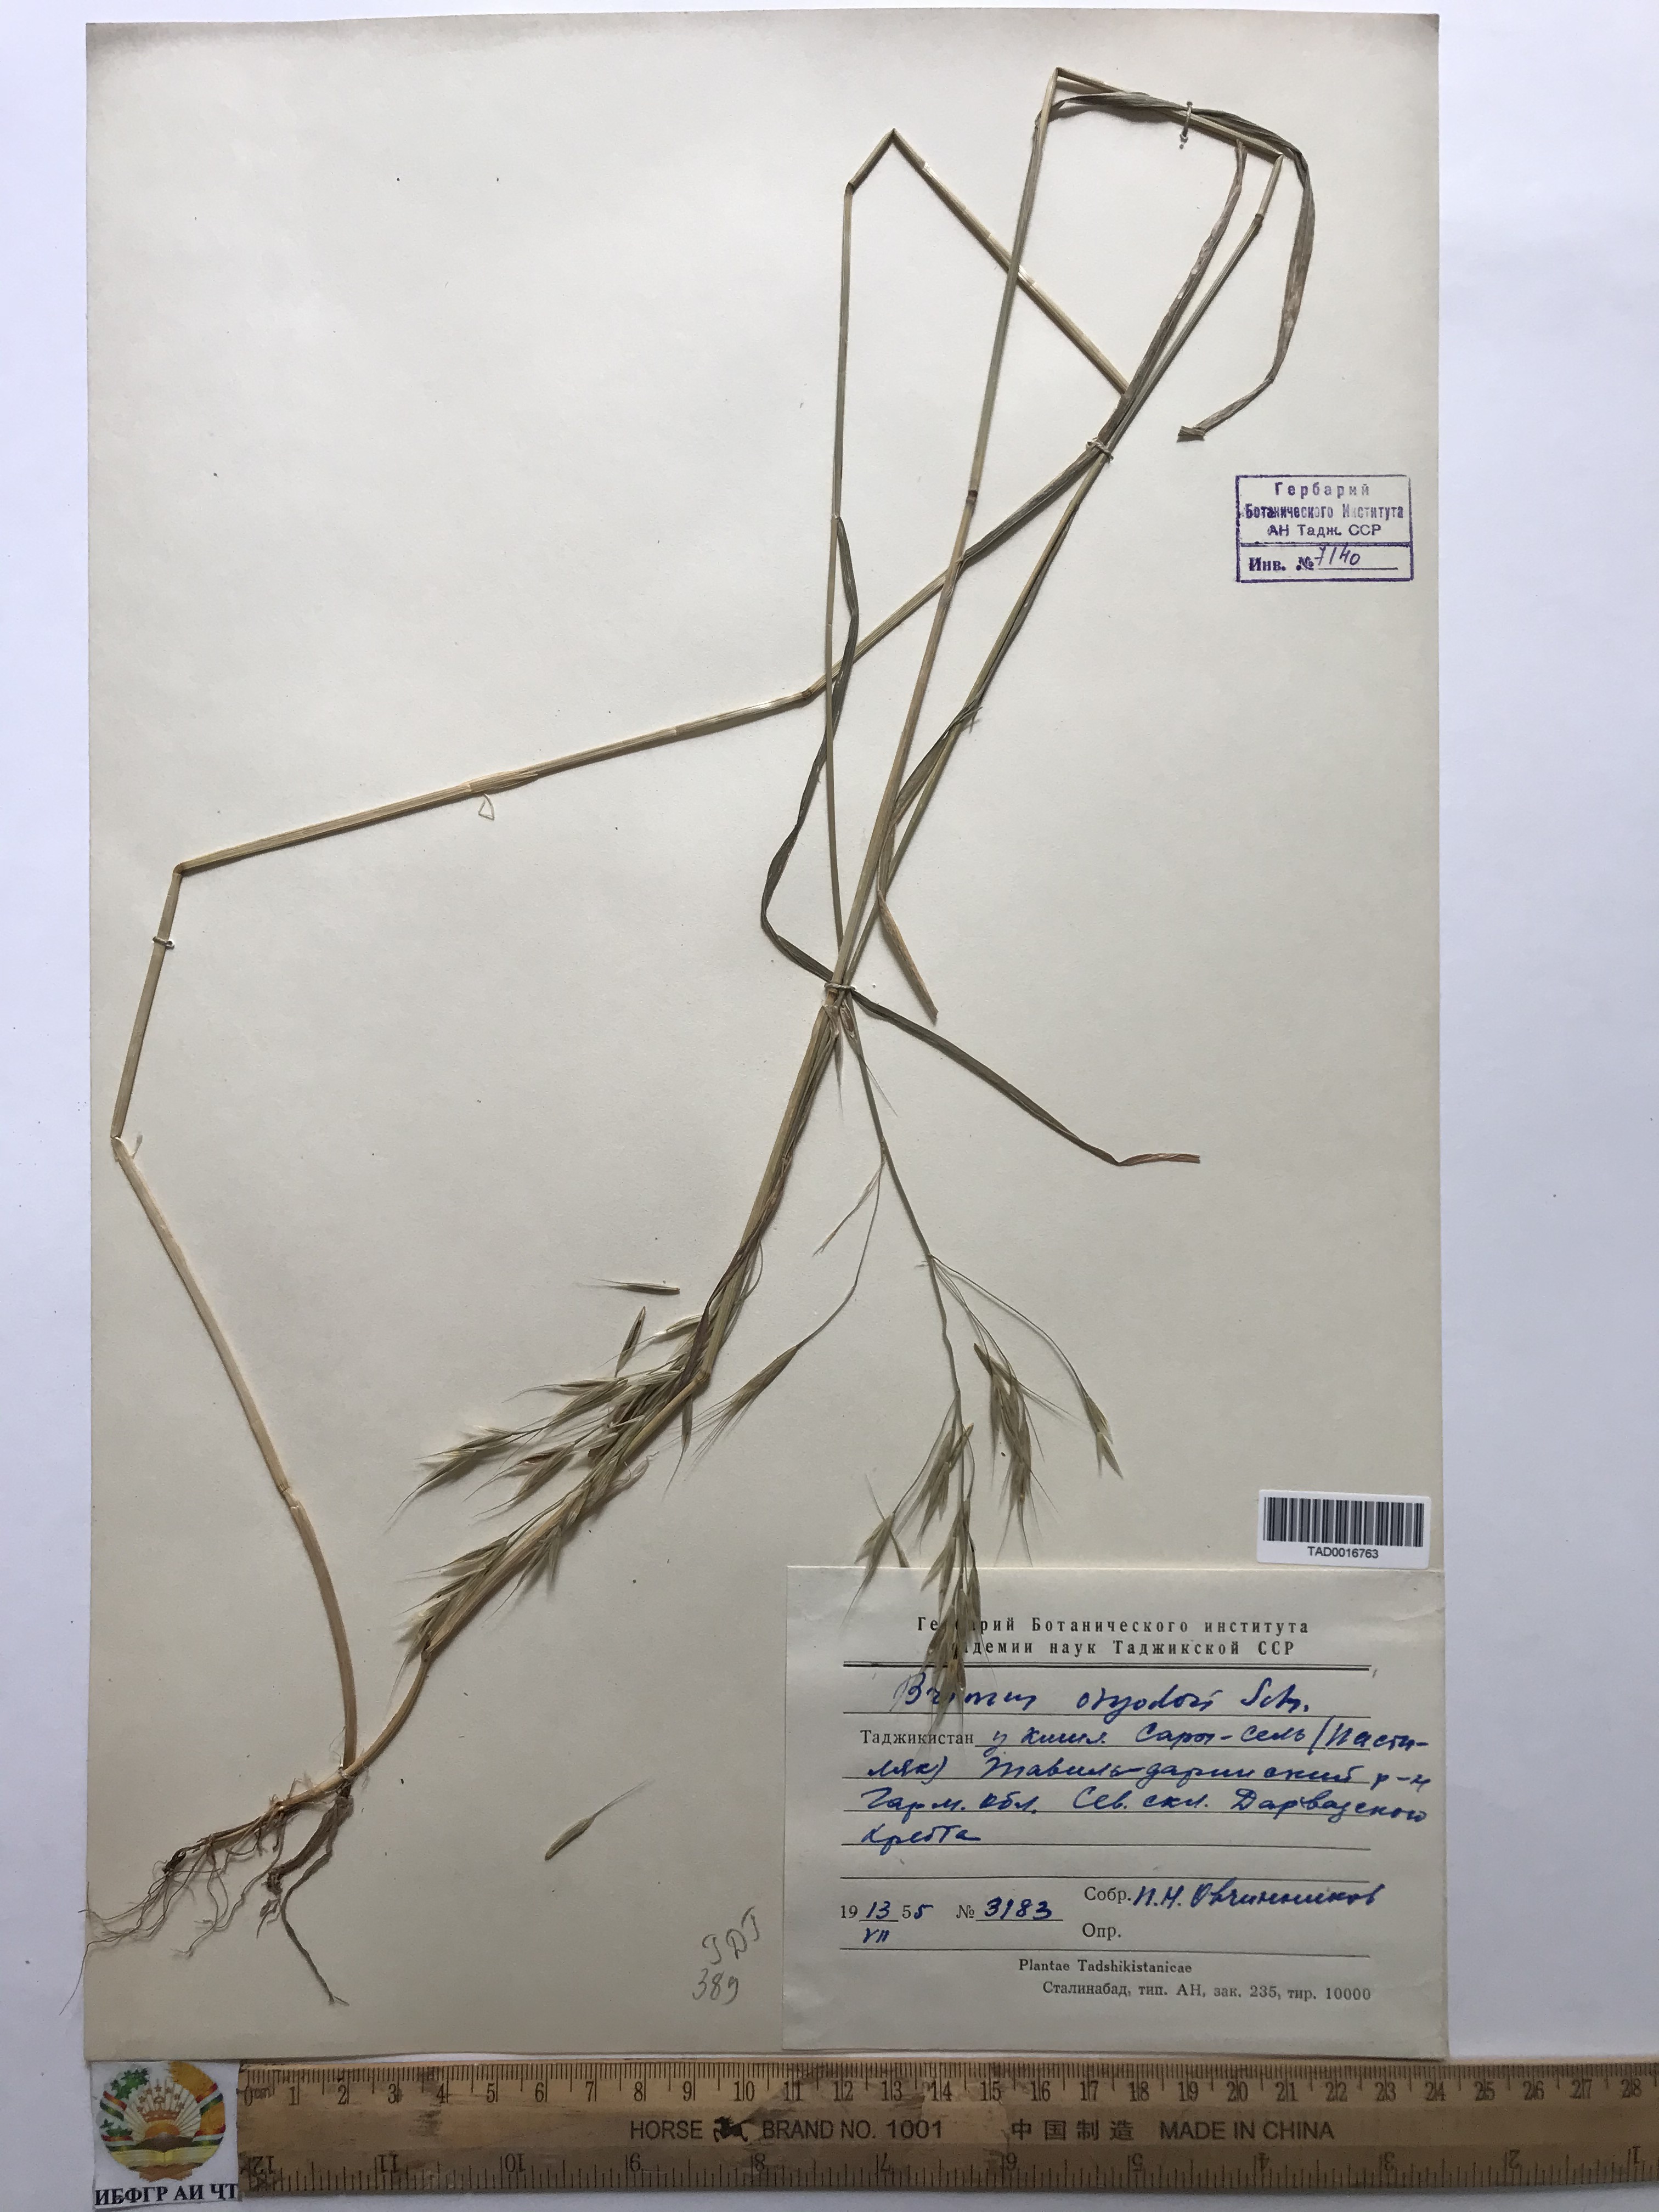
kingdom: Plantae
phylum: Tracheophyta
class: Liliopsida
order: Poales
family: Poaceae
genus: Bromus
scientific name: Bromus oxyodon
